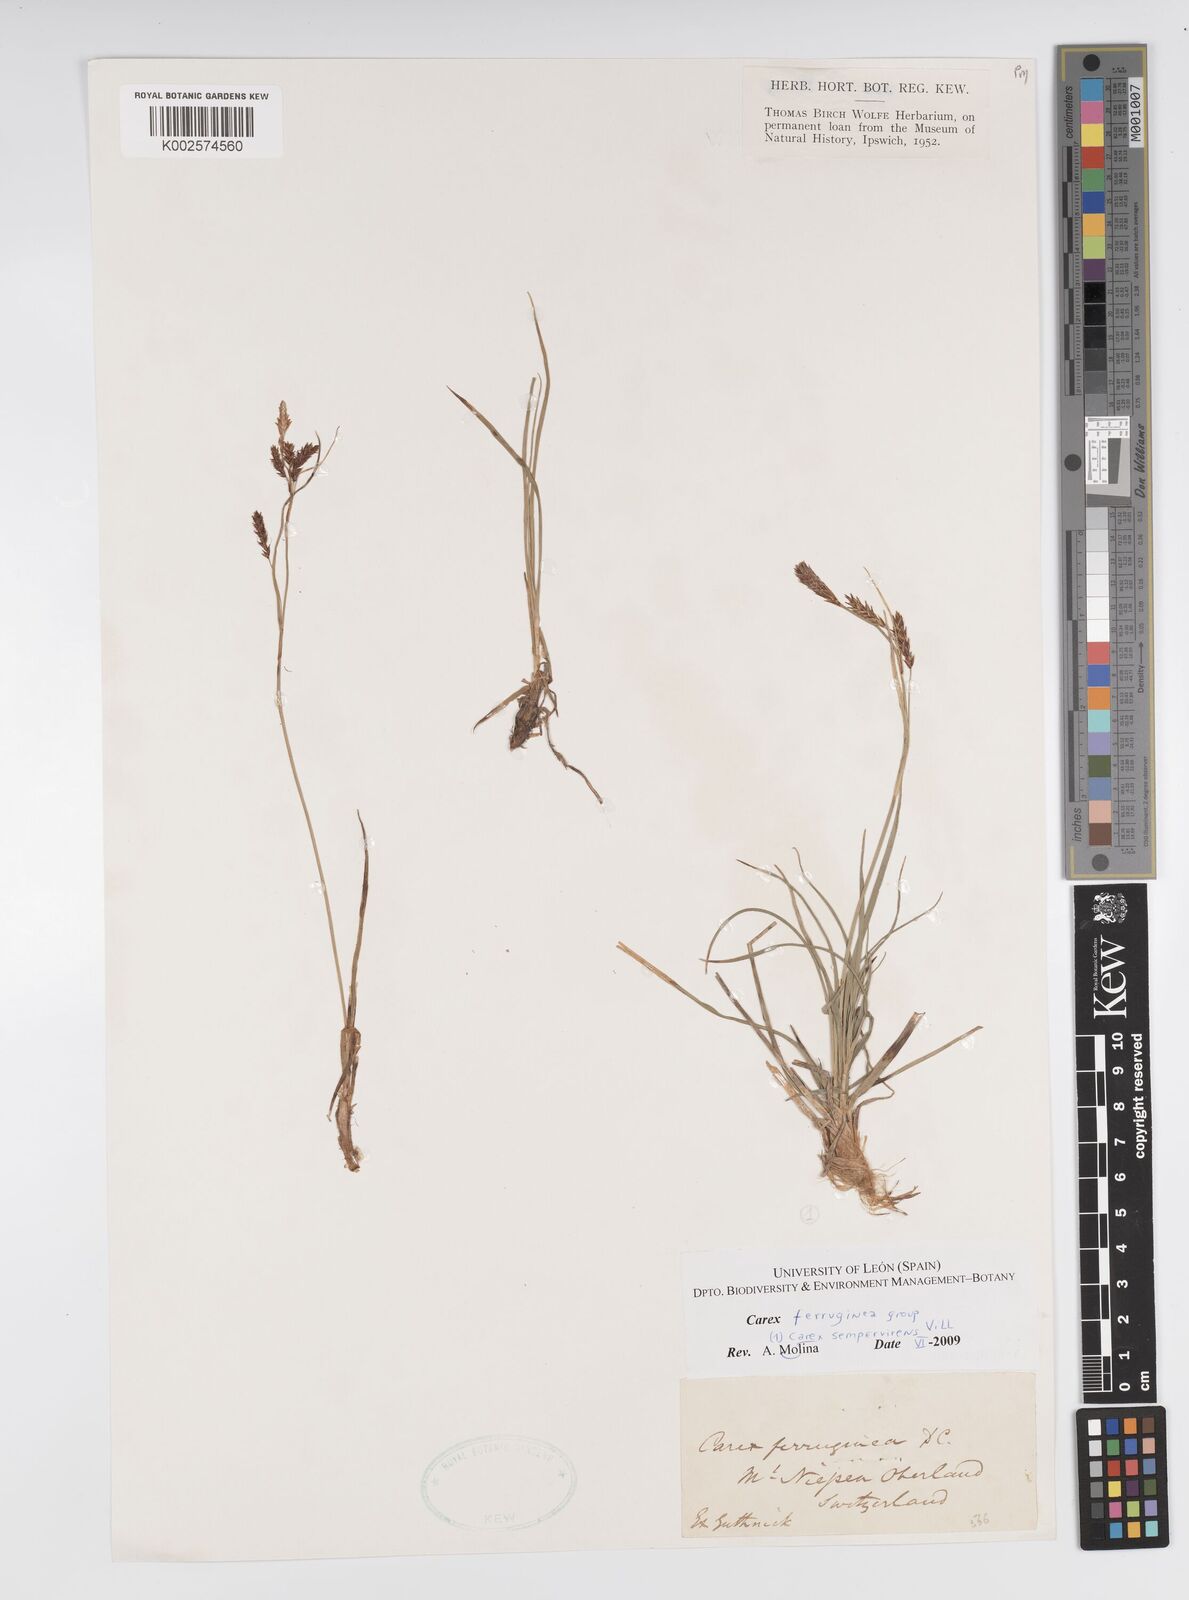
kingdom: Plantae
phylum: Tracheophyta
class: Liliopsida
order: Poales
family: Cyperaceae
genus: Carex
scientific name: Carex sempervirens
